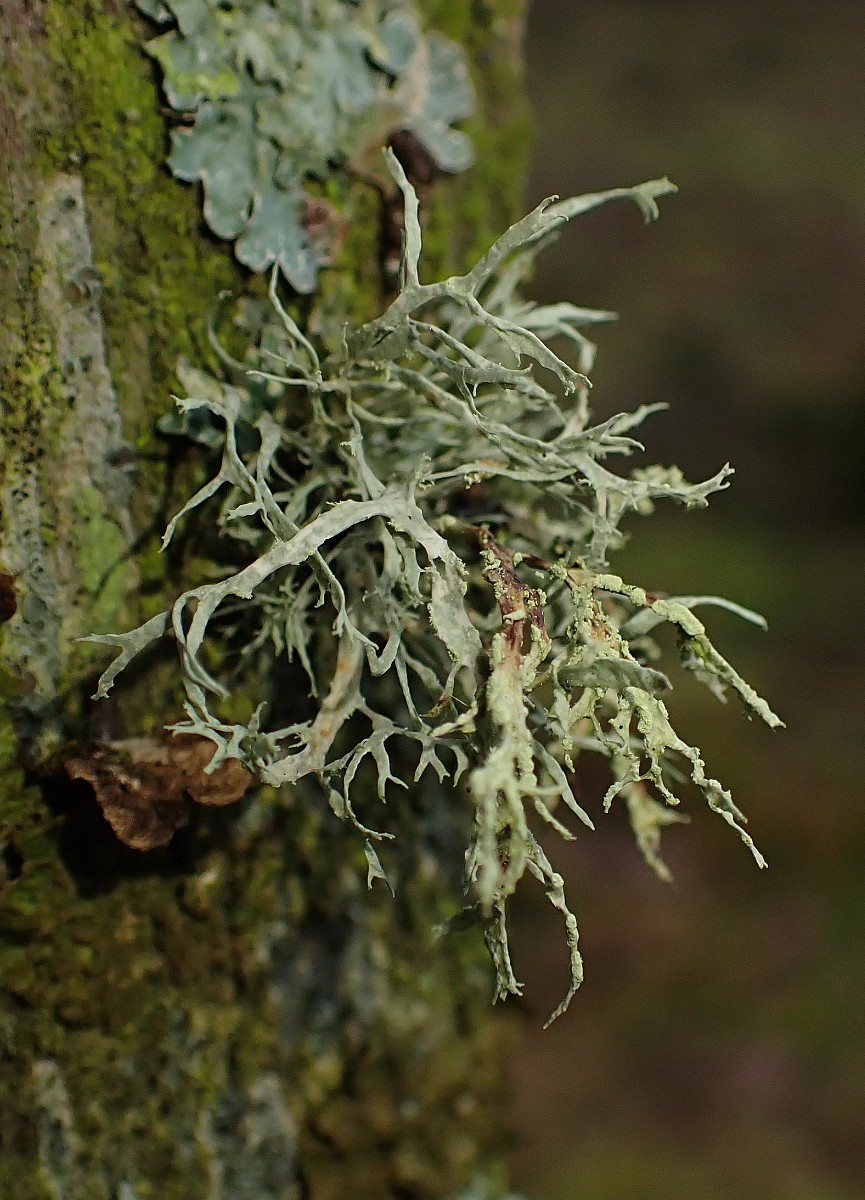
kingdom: Fungi
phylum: Ascomycota
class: Lecanoromycetes
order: Lecanorales
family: Ramalinaceae
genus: Ramalina
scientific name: Ramalina farinacea
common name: melet grenlav
